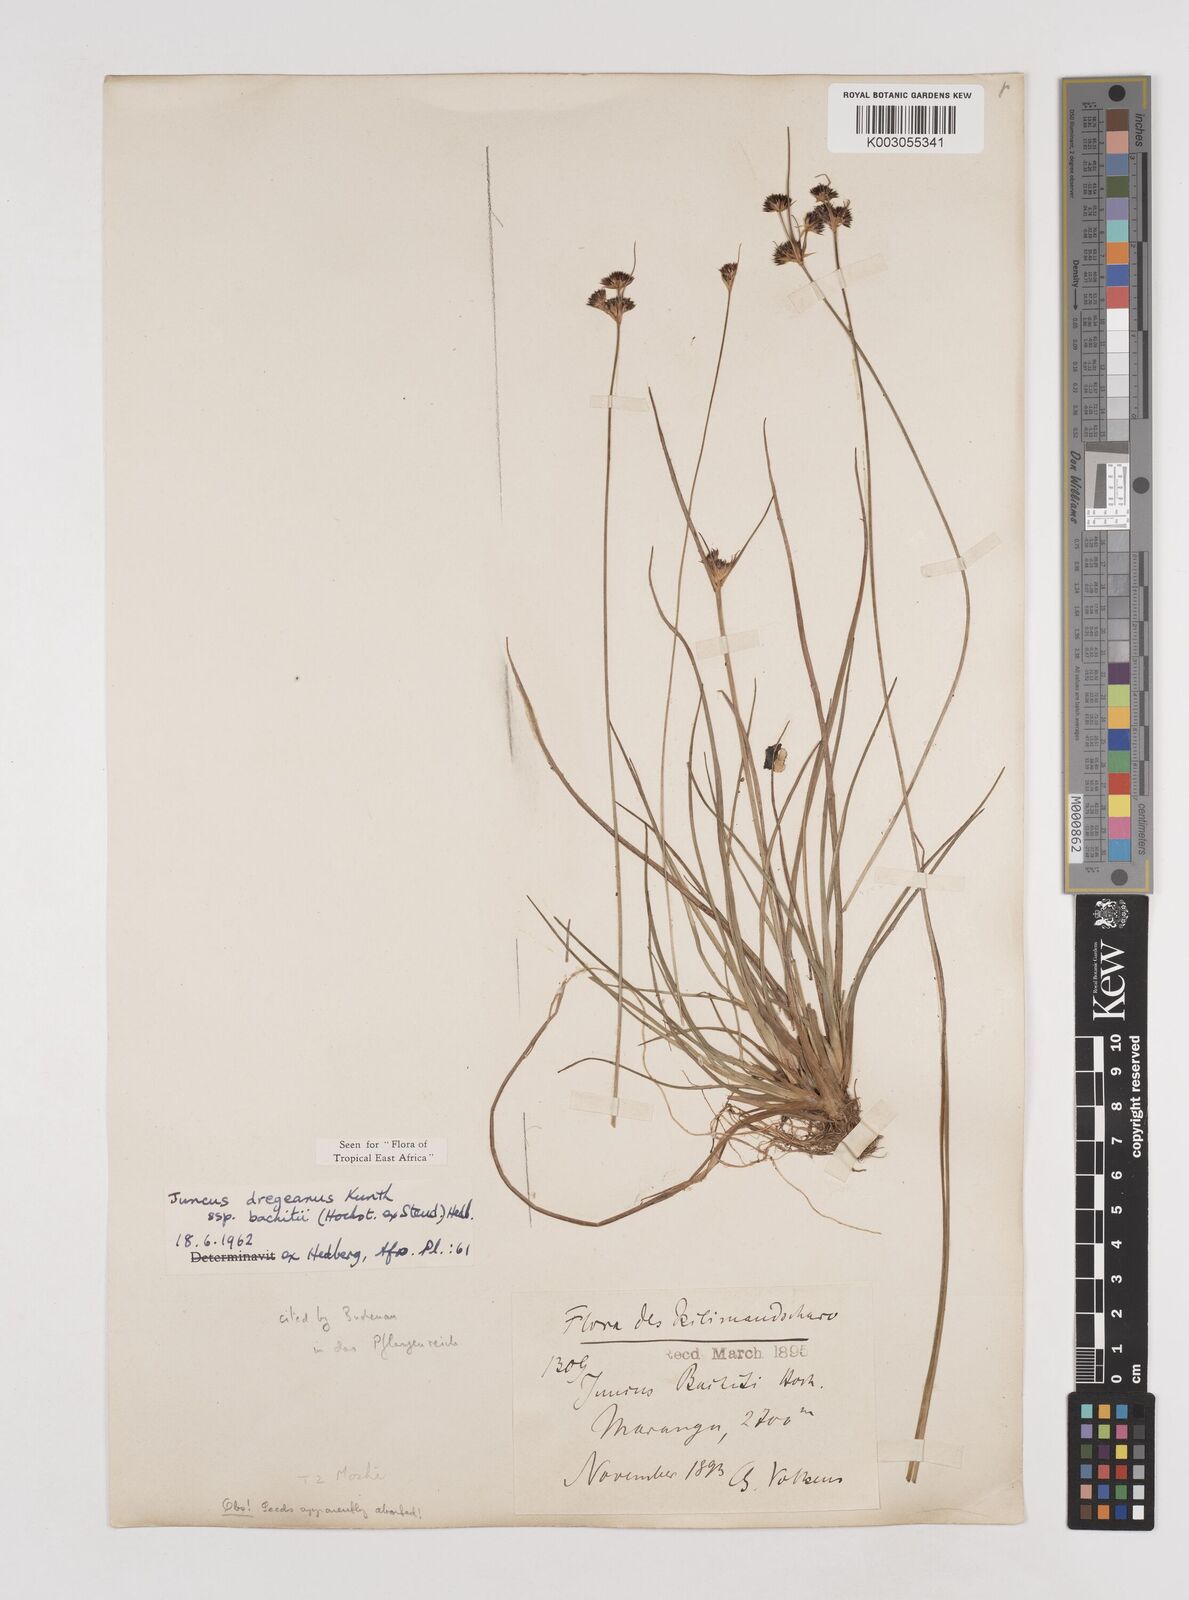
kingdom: Plantae
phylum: Tracheophyta
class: Liliopsida
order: Poales
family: Juncaceae
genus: Juncus
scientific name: Juncus dregeanus
